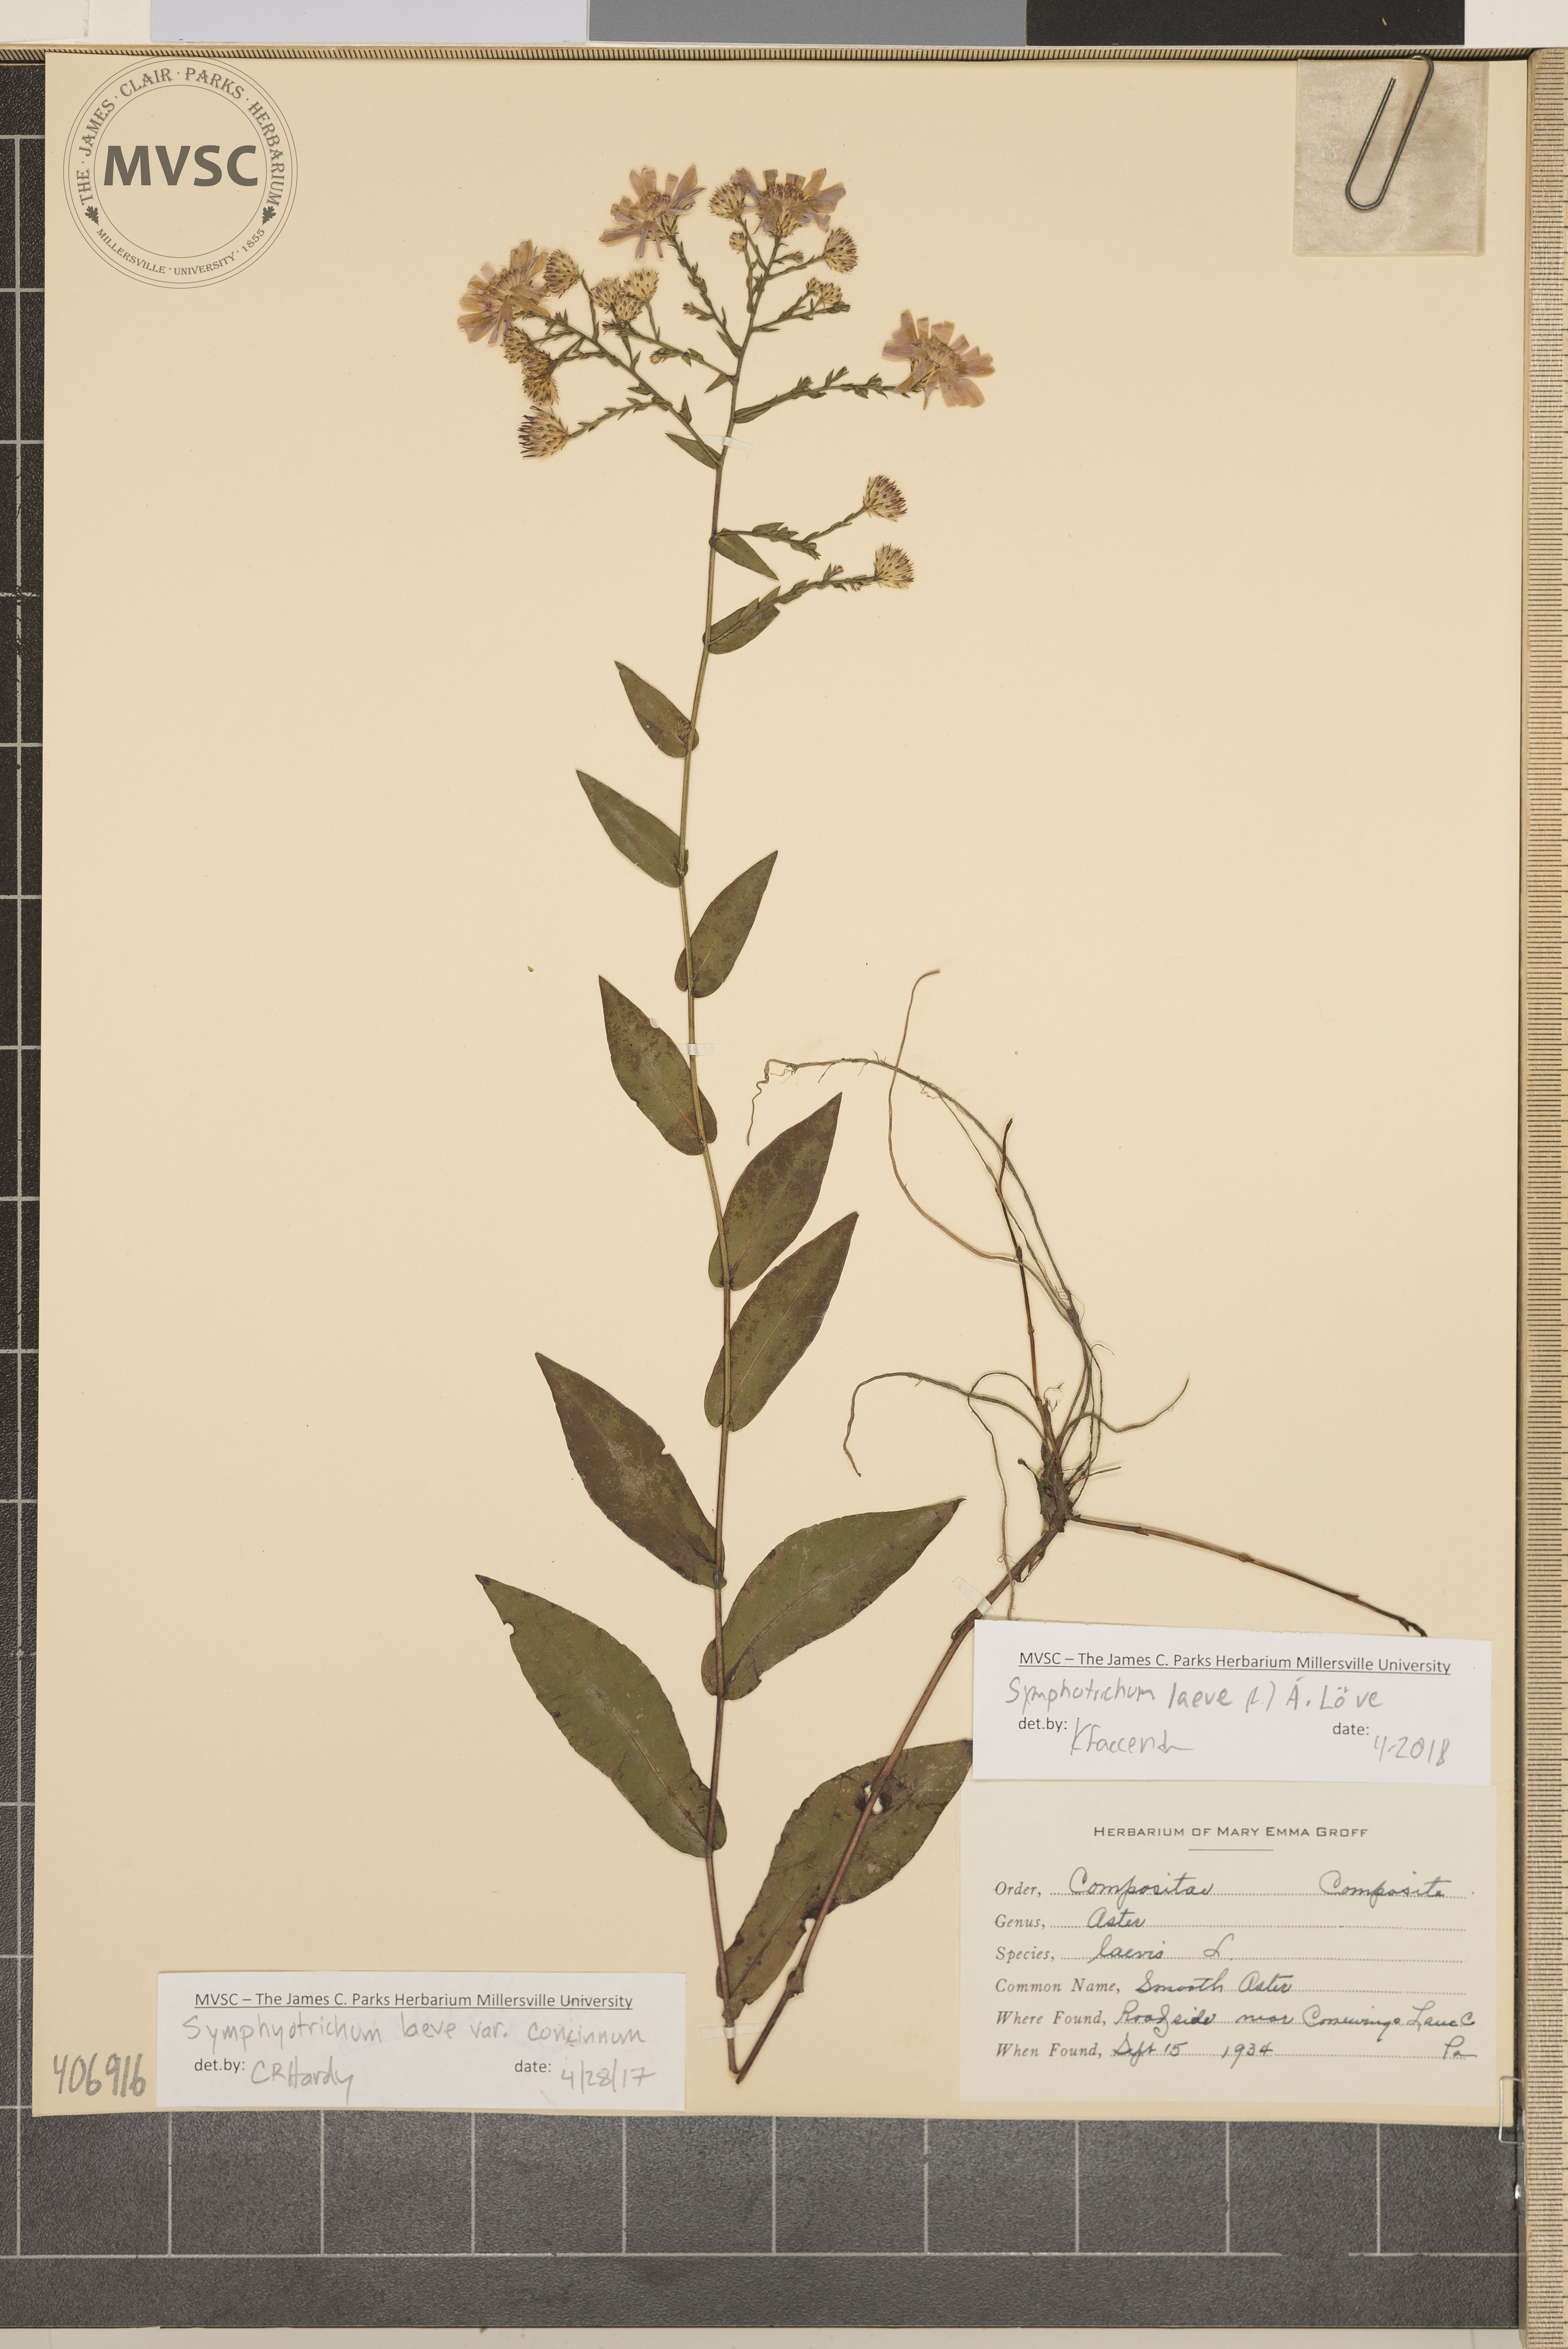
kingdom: Plantae
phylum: Tracheophyta
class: Magnoliopsida
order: Asterales
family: Asteraceae
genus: Symphyotrichum
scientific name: Symphyotrichum laeve
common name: Smooth Aster
